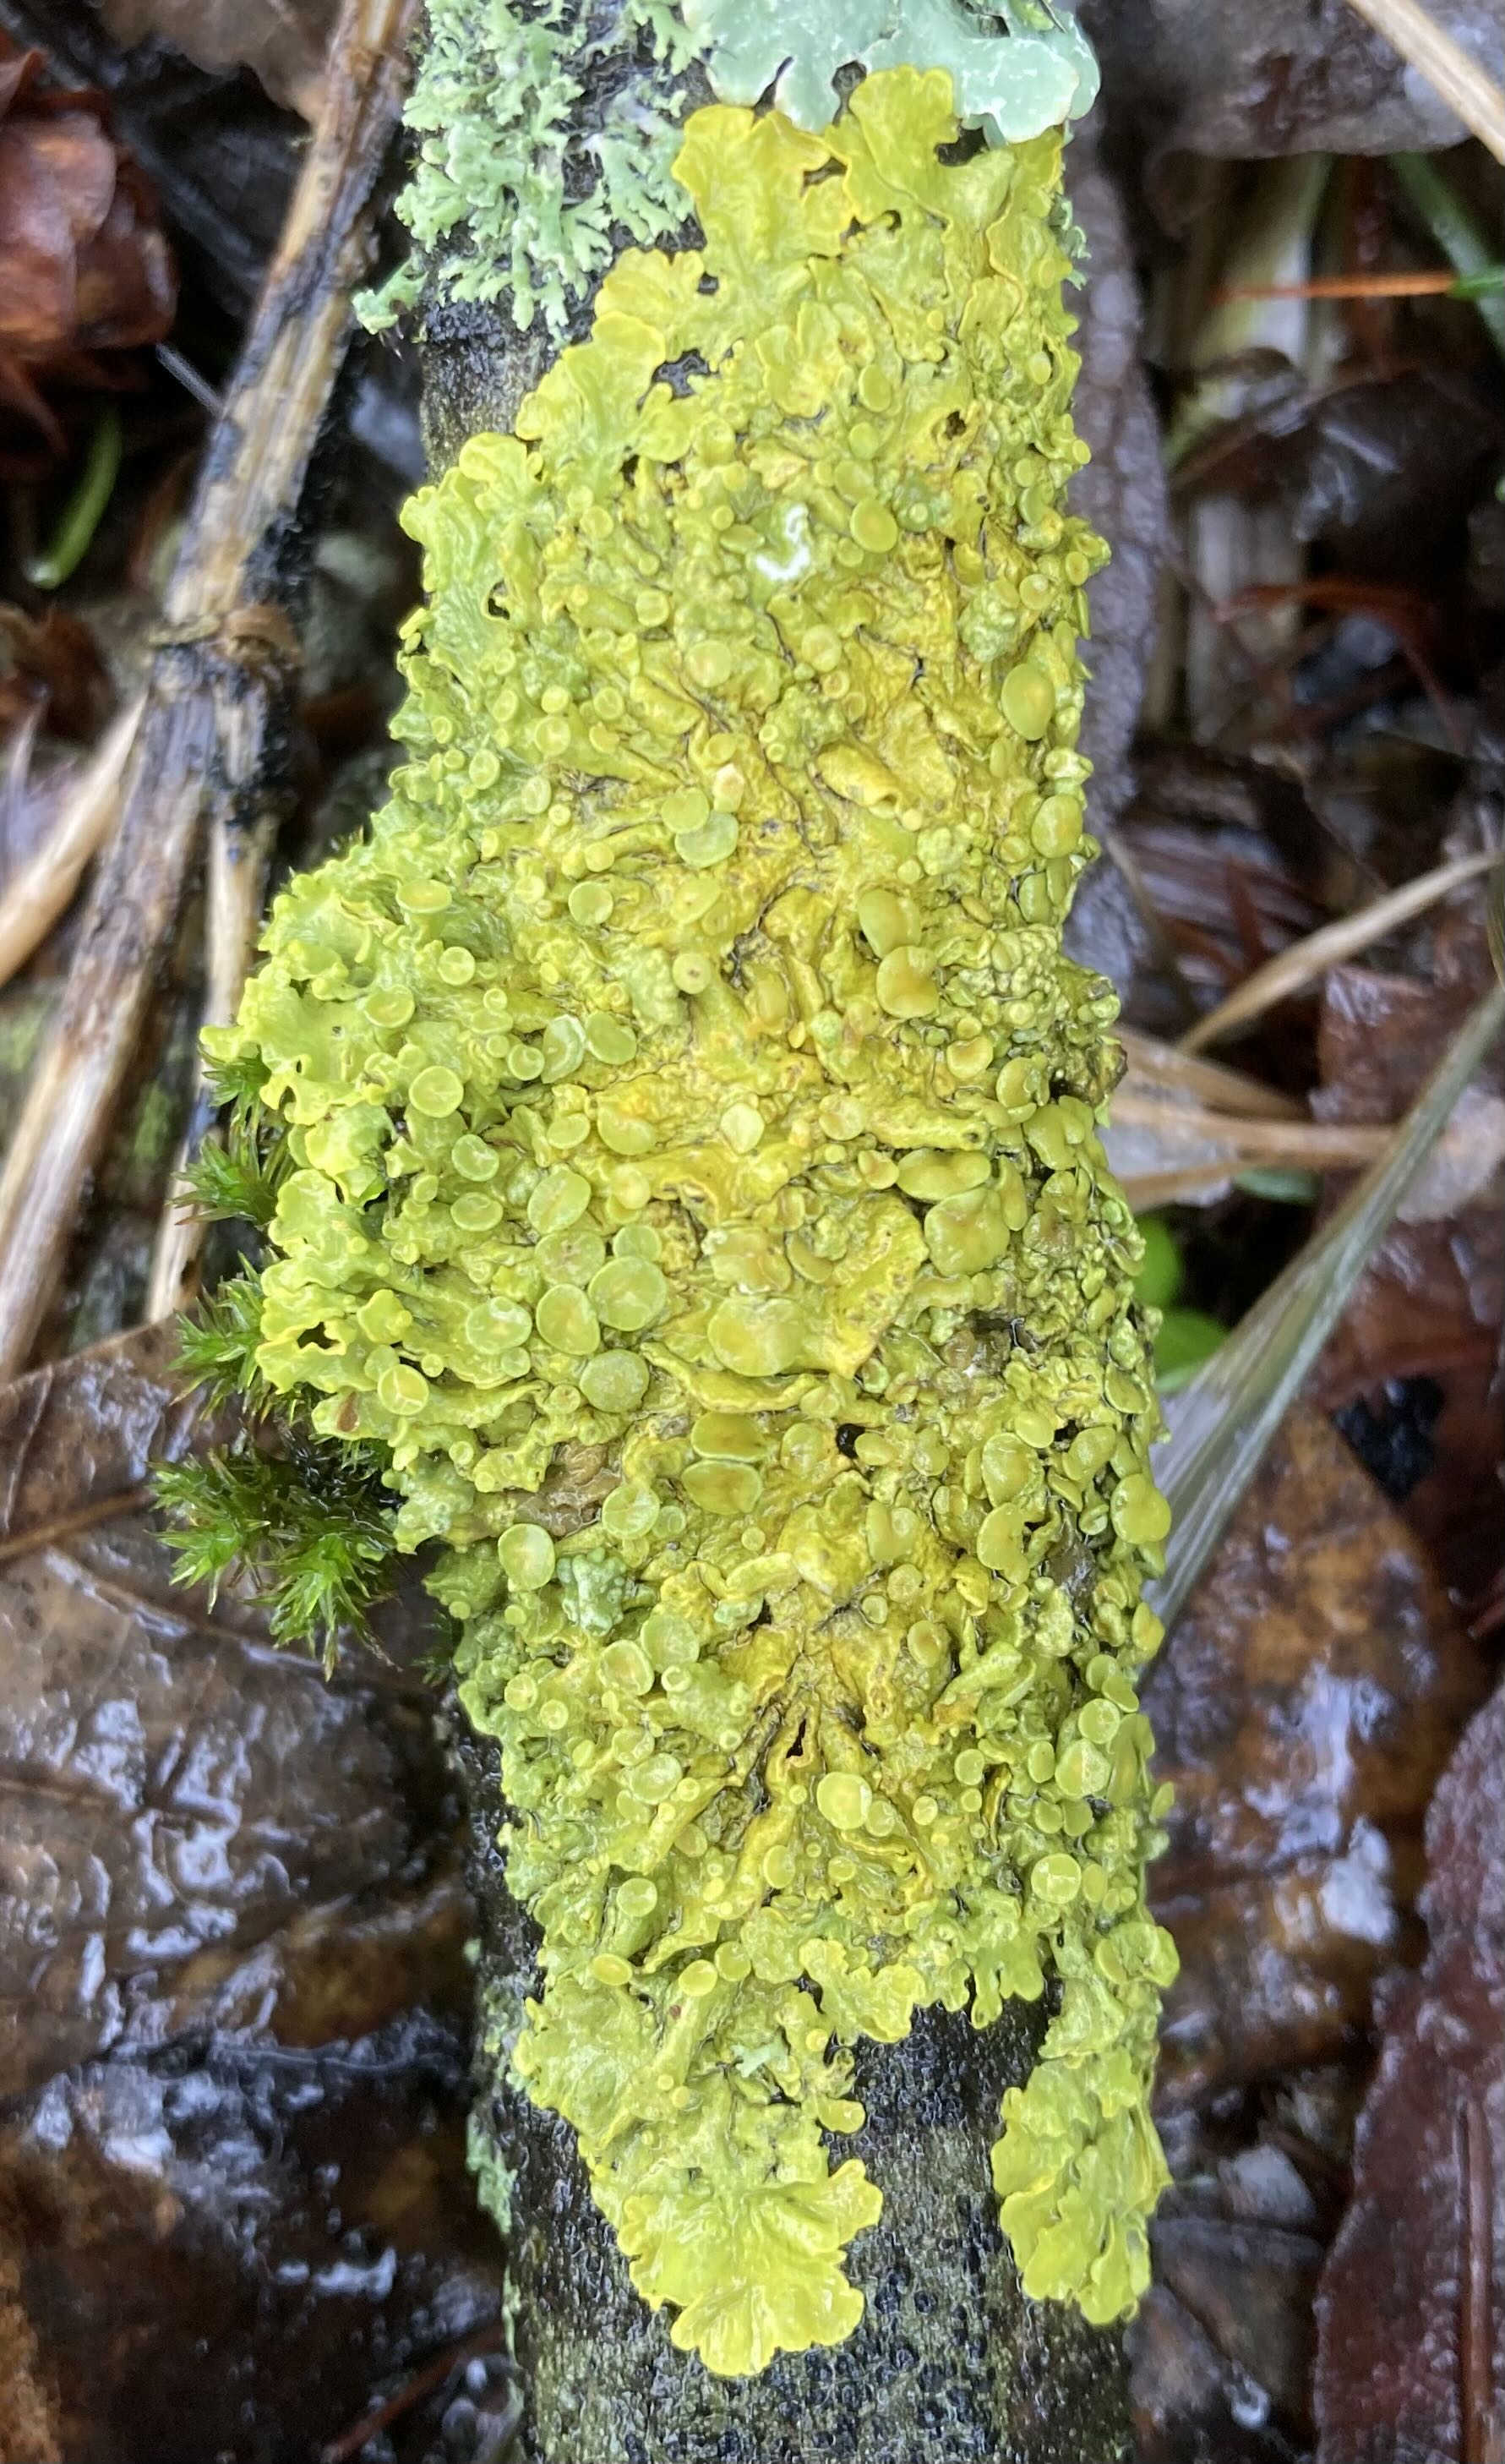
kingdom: Fungi
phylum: Ascomycota
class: Lecanoromycetes
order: Teloschistales
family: Teloschistaceae
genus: Xanthoria
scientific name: Xanthoria parietina
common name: almindelig væggelav
